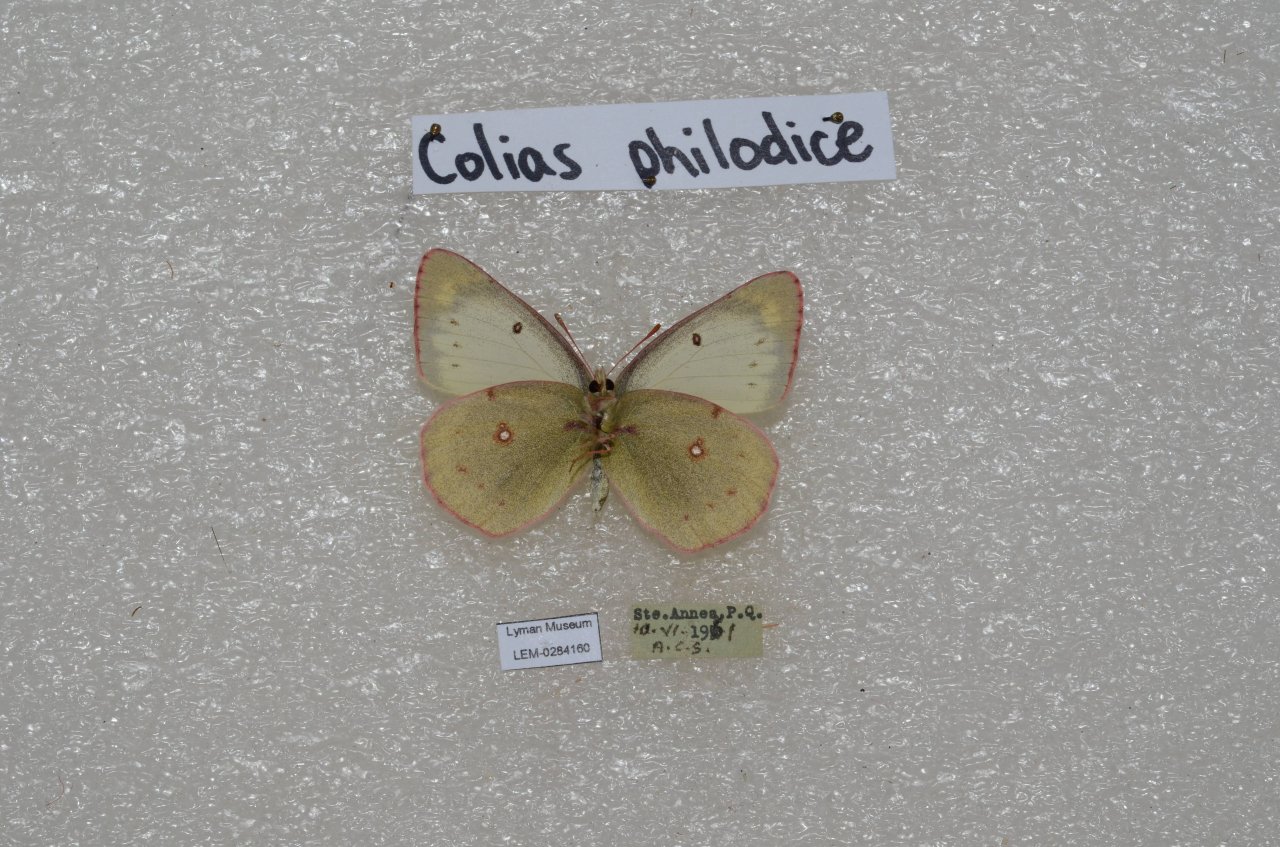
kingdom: Animalia
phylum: Arthropoda
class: Insecta
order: Lepidoptera
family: Pieridae
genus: Colias
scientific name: Colias philodice
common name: Clouded Sulphur
